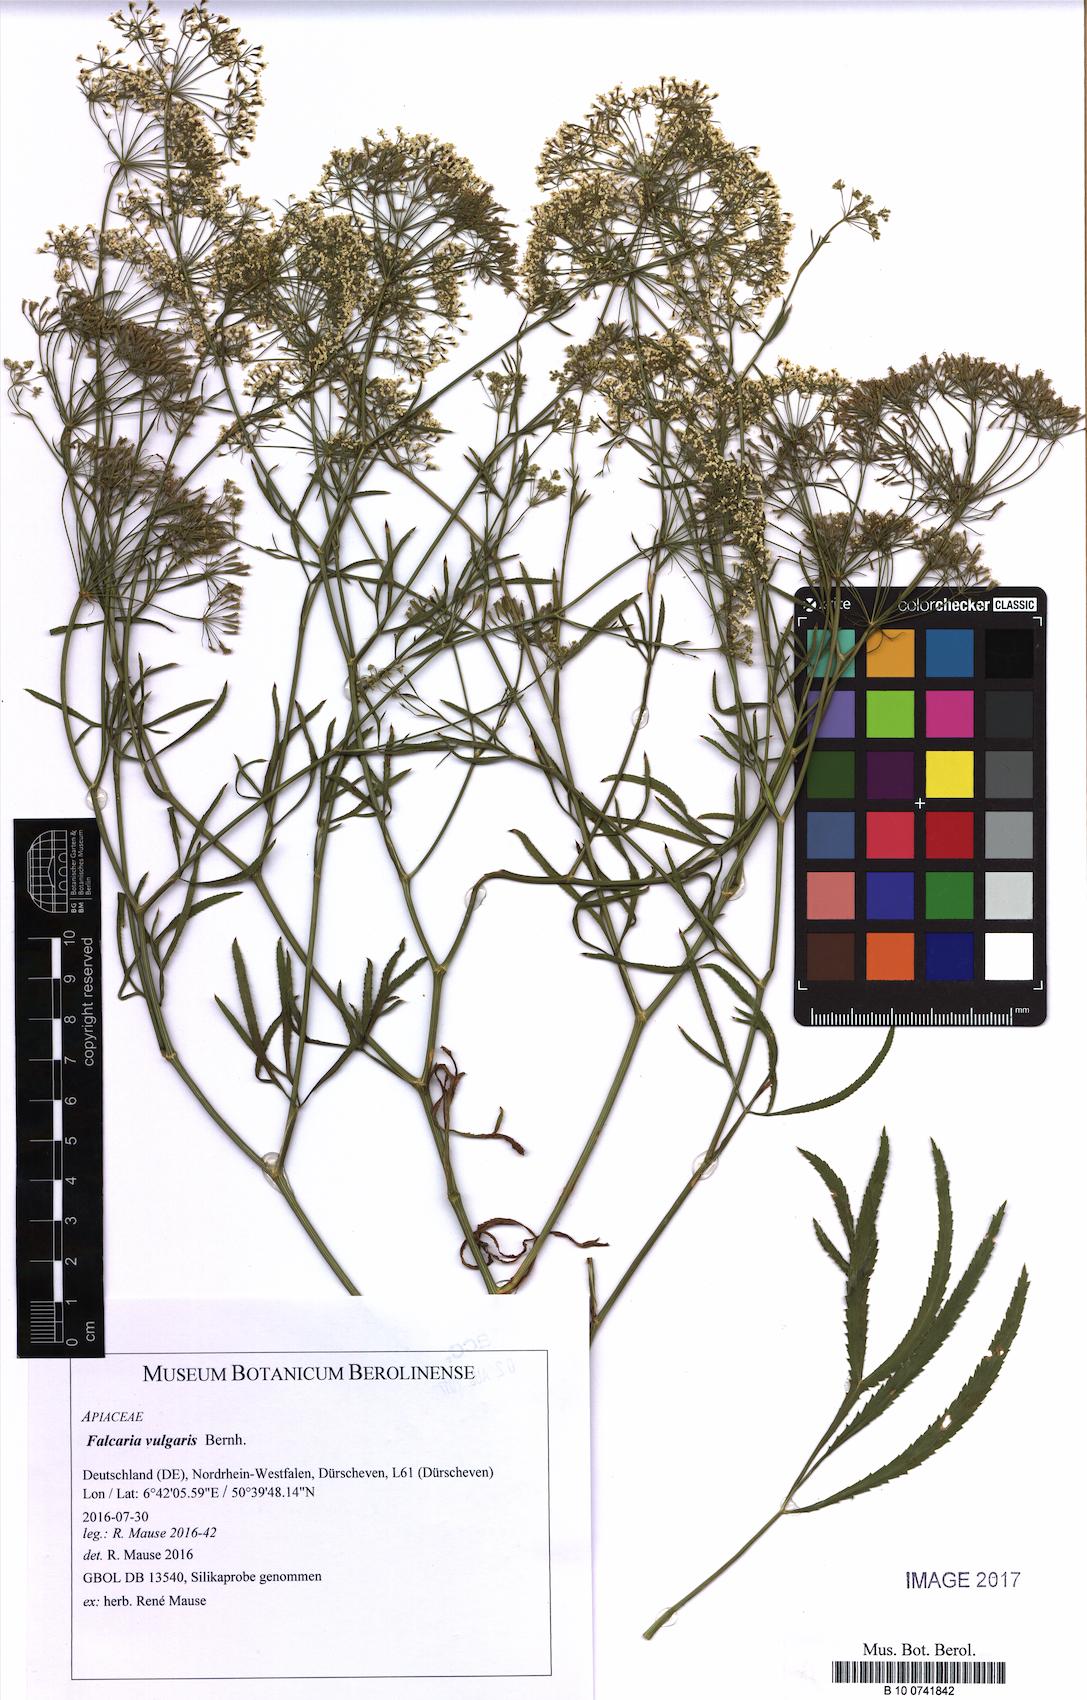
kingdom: Plantae
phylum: Tracheophyta
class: Magnoliopsida
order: Apiales
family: Apiaceae
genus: Falcaria
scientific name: Falcaria vulgaris
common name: Longleaf
